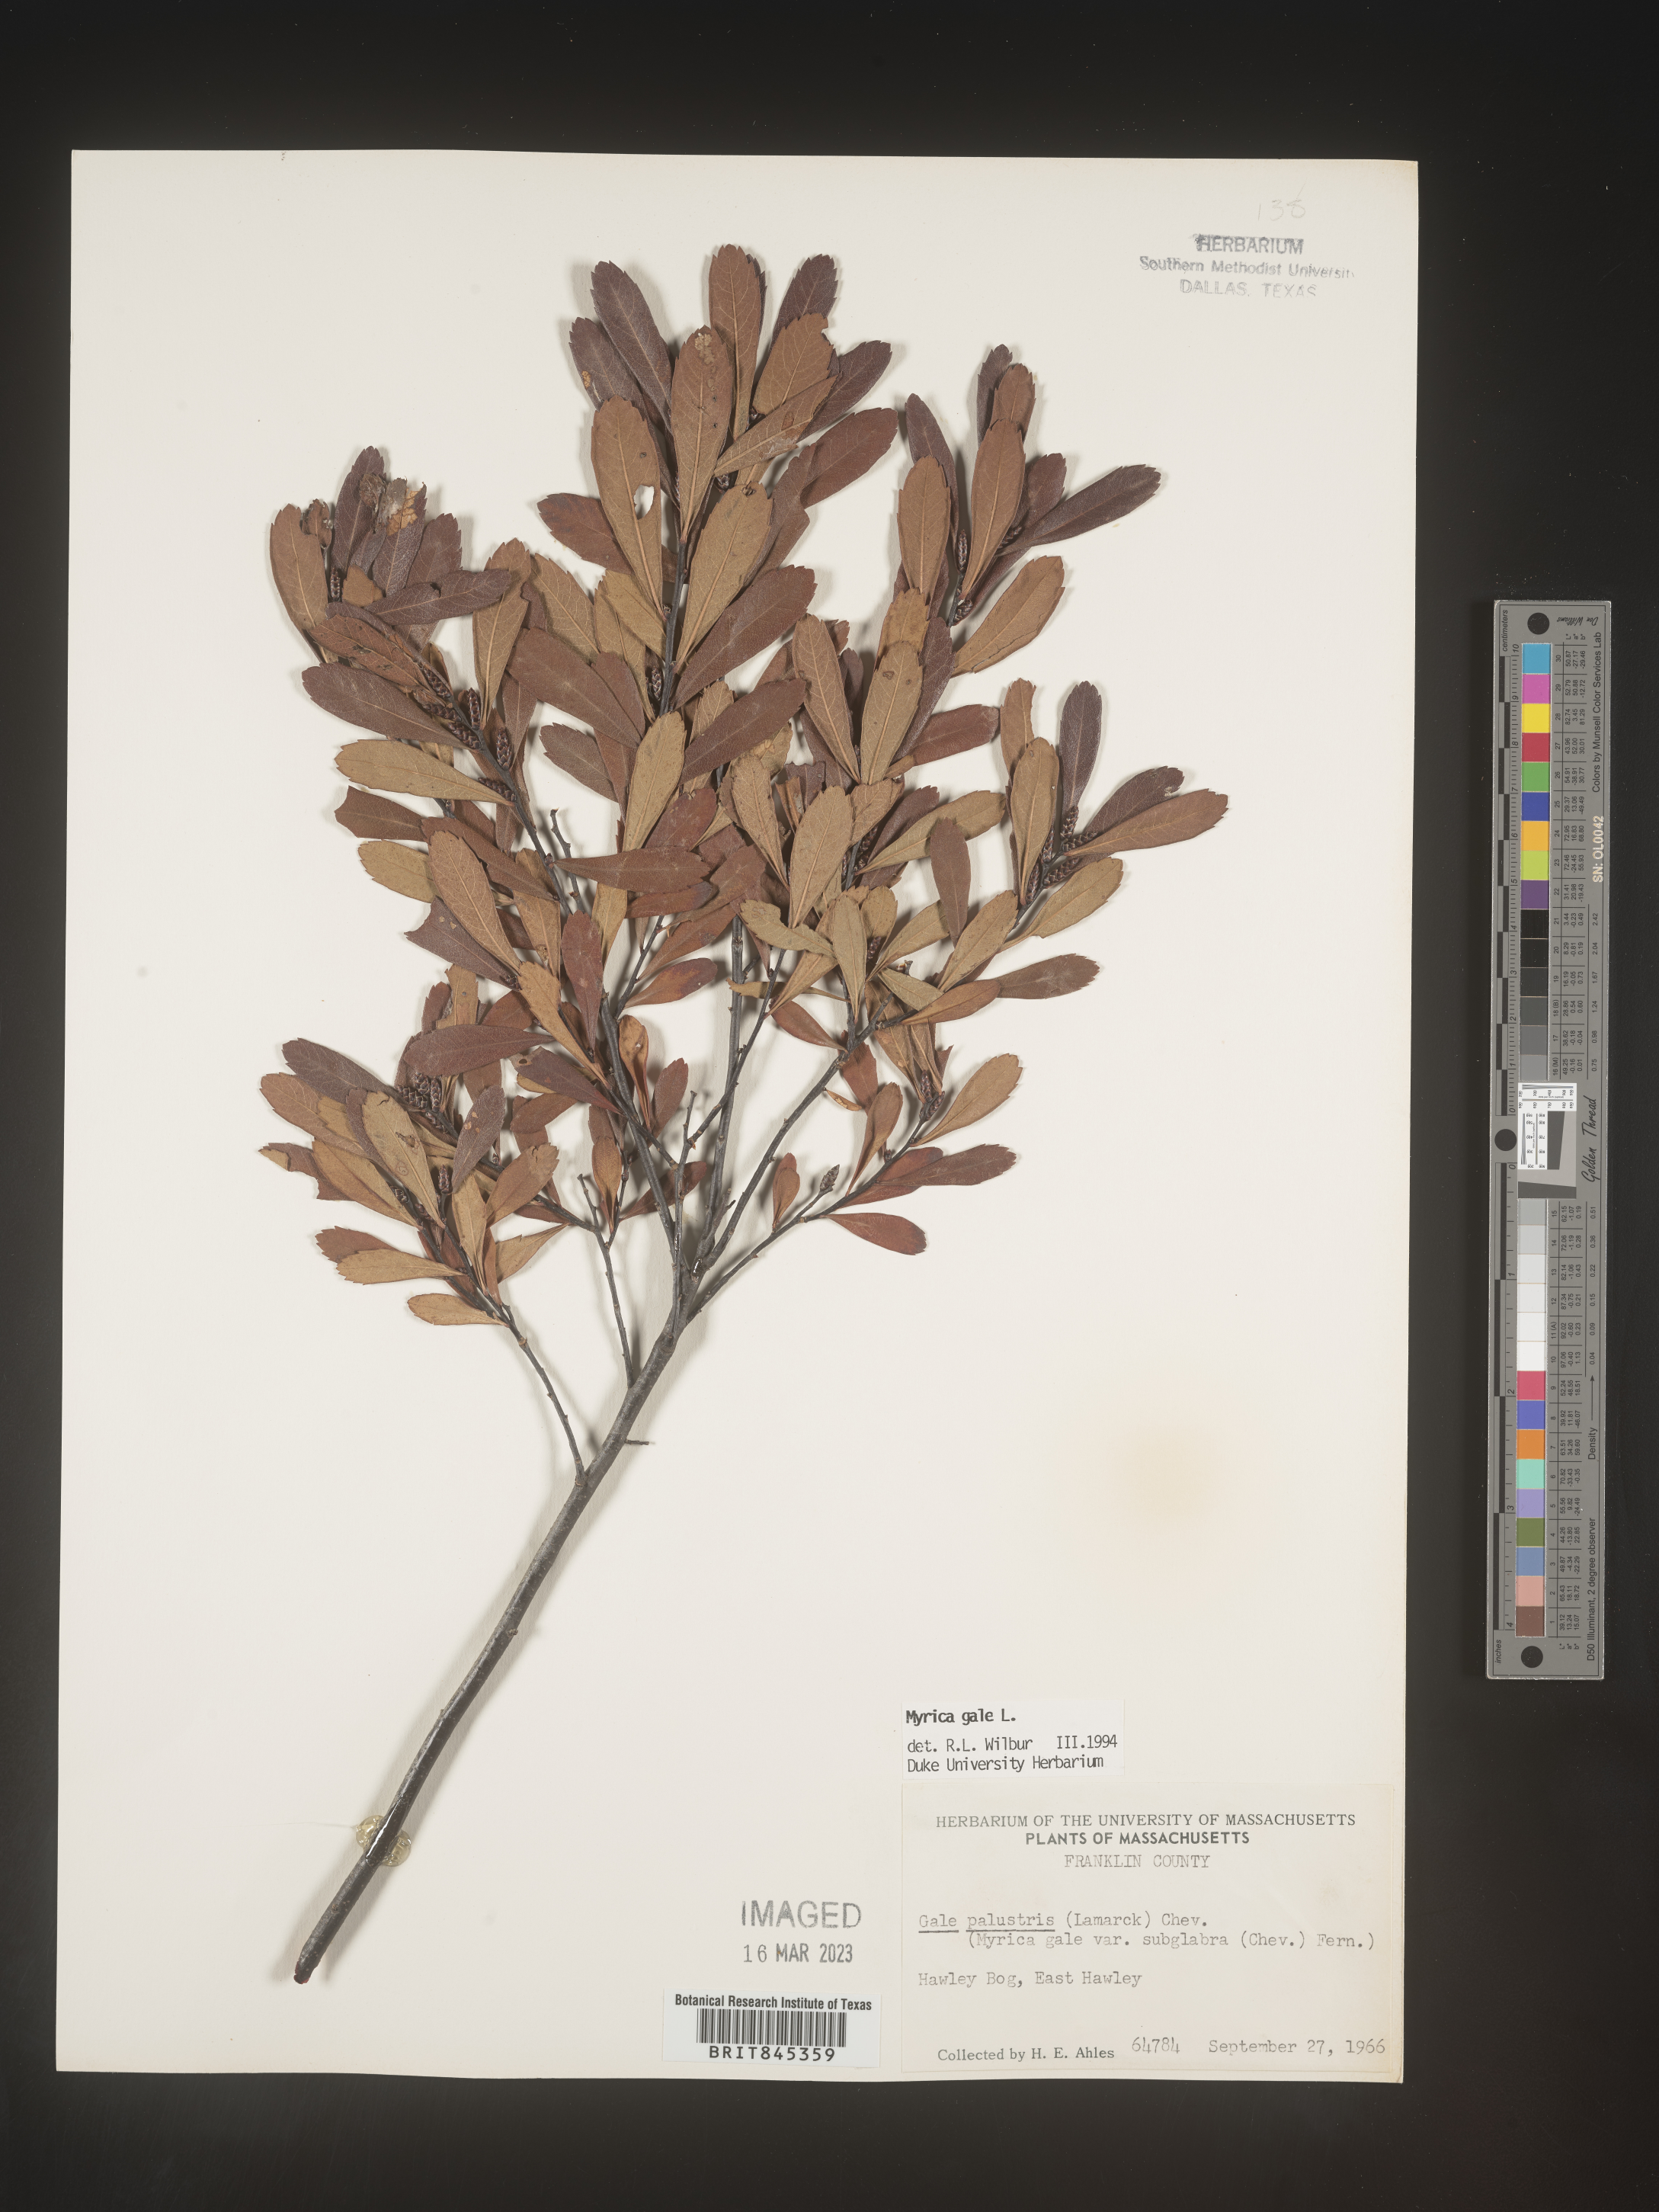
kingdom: Plantae
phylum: Tracheophyta
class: Magnoliopsida
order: Fagales
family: Myricaceae
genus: Myrica
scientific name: Myrica gale
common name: Sweet gale
